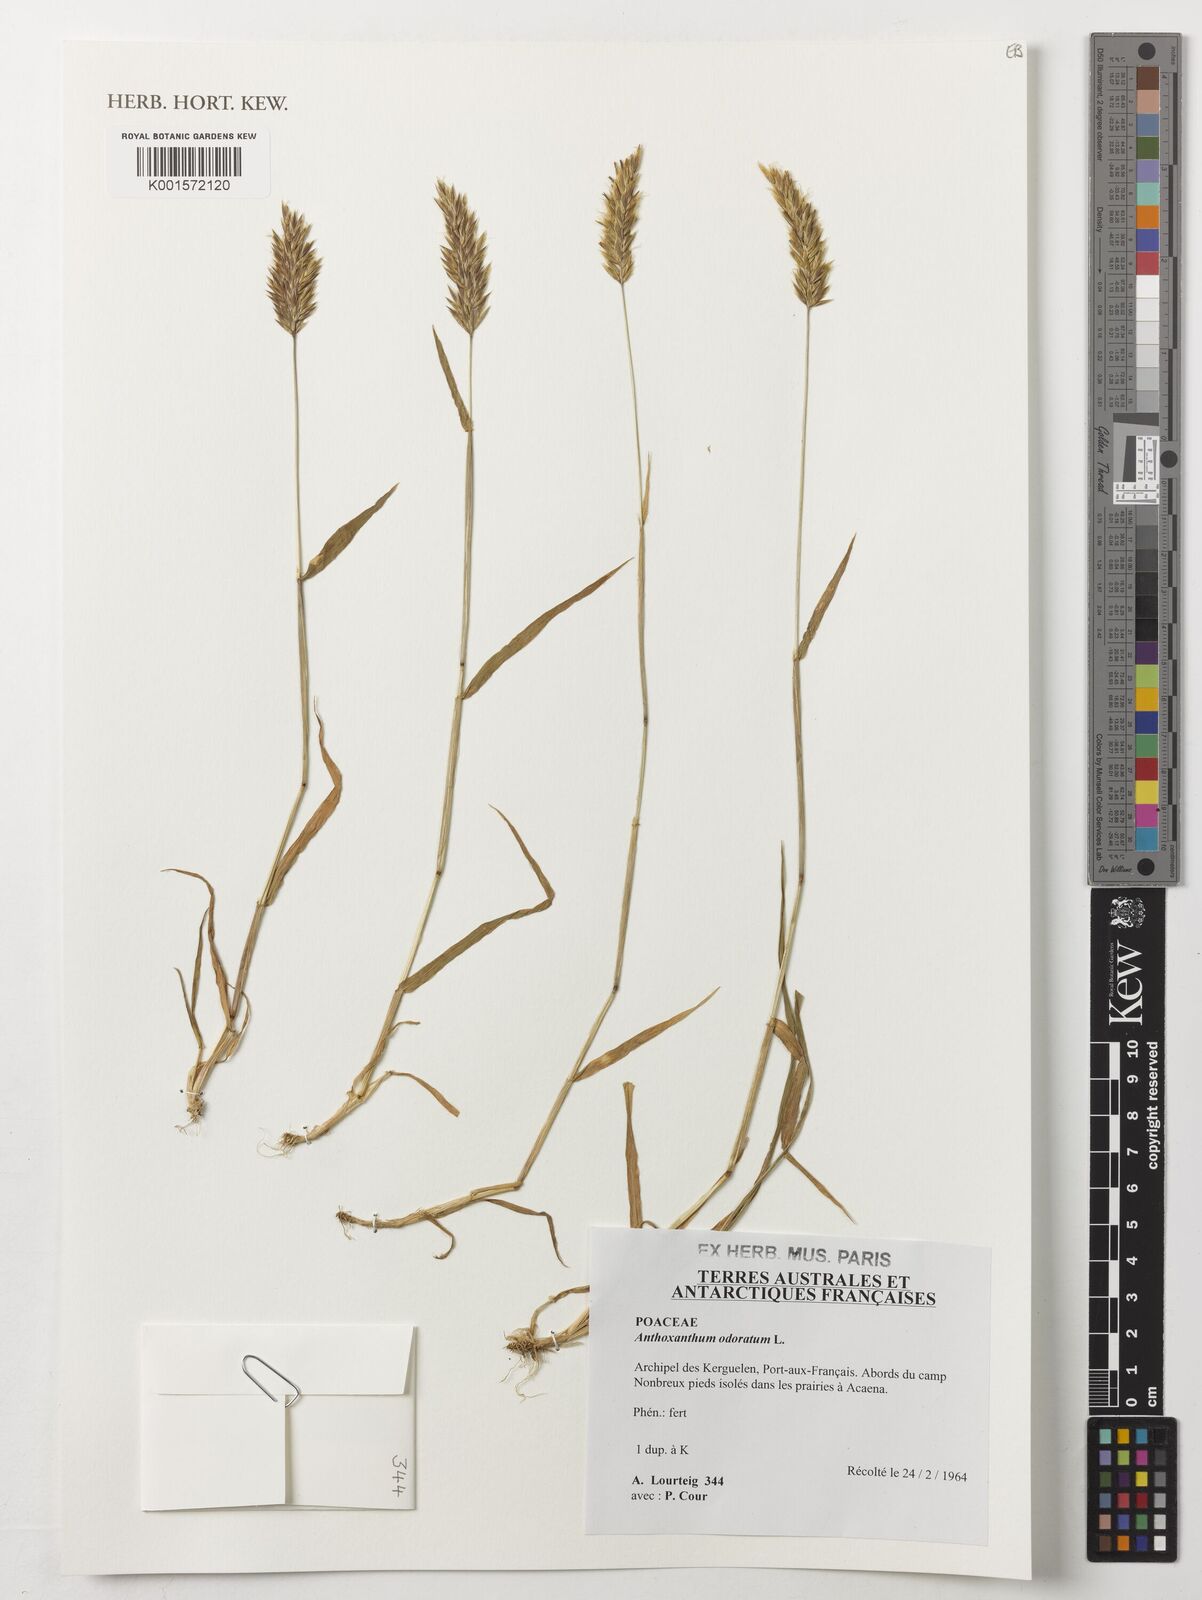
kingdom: Plantae
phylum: Tracheophyta
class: Liliopsida
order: Poales
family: Poaceae
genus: Anthoxanthum
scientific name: Anthoxanthum odoratum
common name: Sweet vernalgrass
